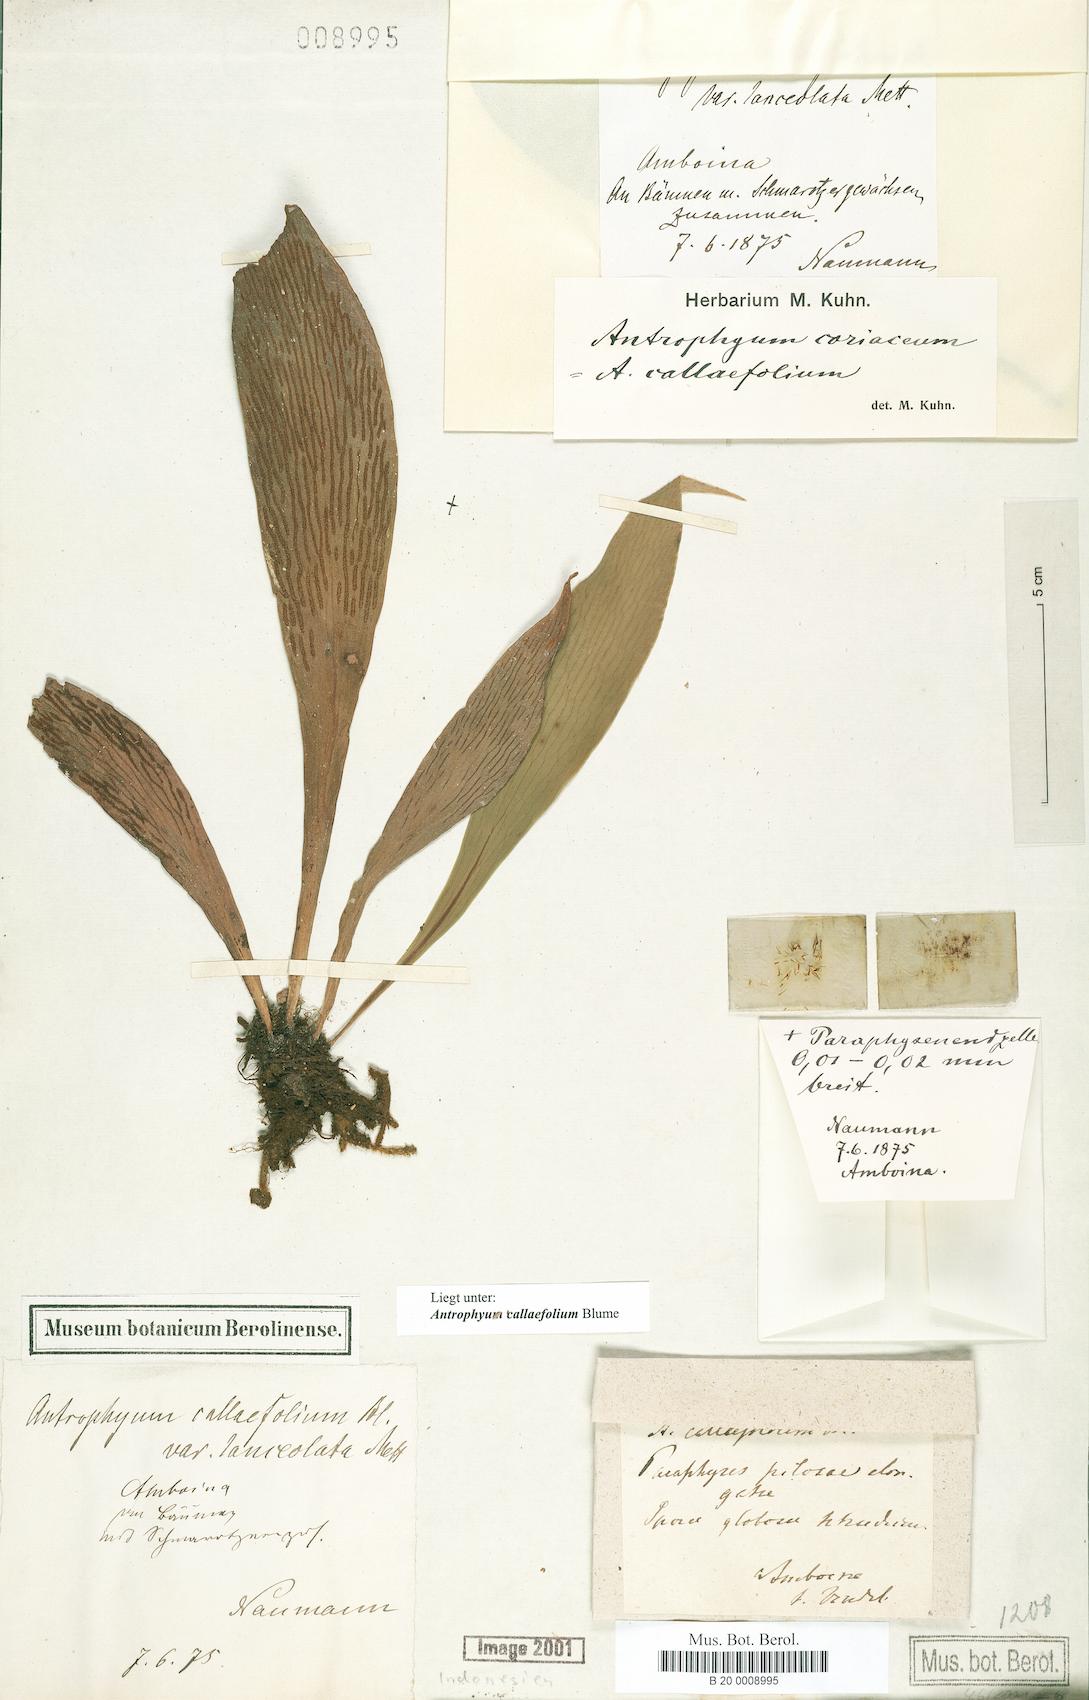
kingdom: Plantae
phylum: Tracheophyta
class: Polypodiopsida
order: Polypodiales
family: Pteridaceae
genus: Antrophyum
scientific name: Antrophyum callifolium
